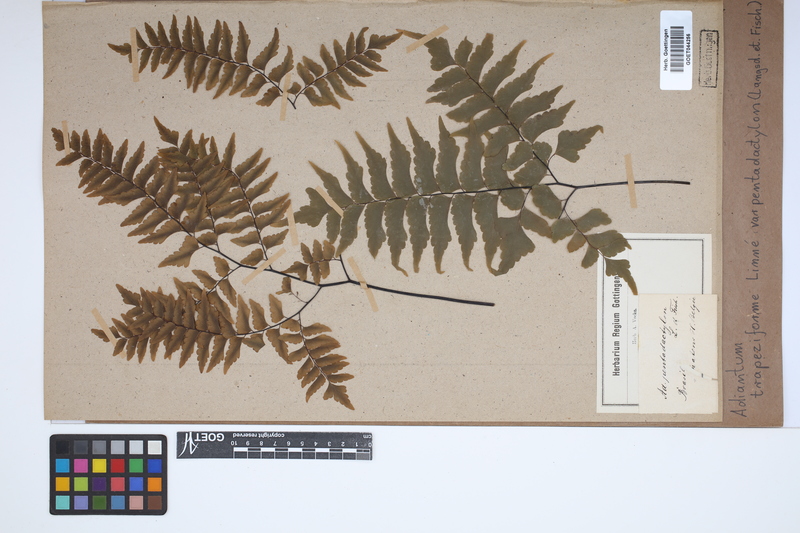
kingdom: Plantae
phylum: Tracheophyta
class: Polypodiopsida
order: Polypodiales
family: Pteridaceae
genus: Adiantum
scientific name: Adiantum pentadactylon
